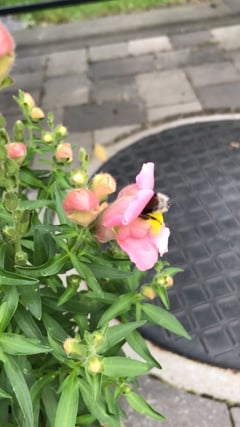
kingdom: Animalia
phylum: Arthropoda
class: Insecta
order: Hymenoptera
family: Apidae
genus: Bombus
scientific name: Bombus terrestris
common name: Buff-tailed bumblebee
